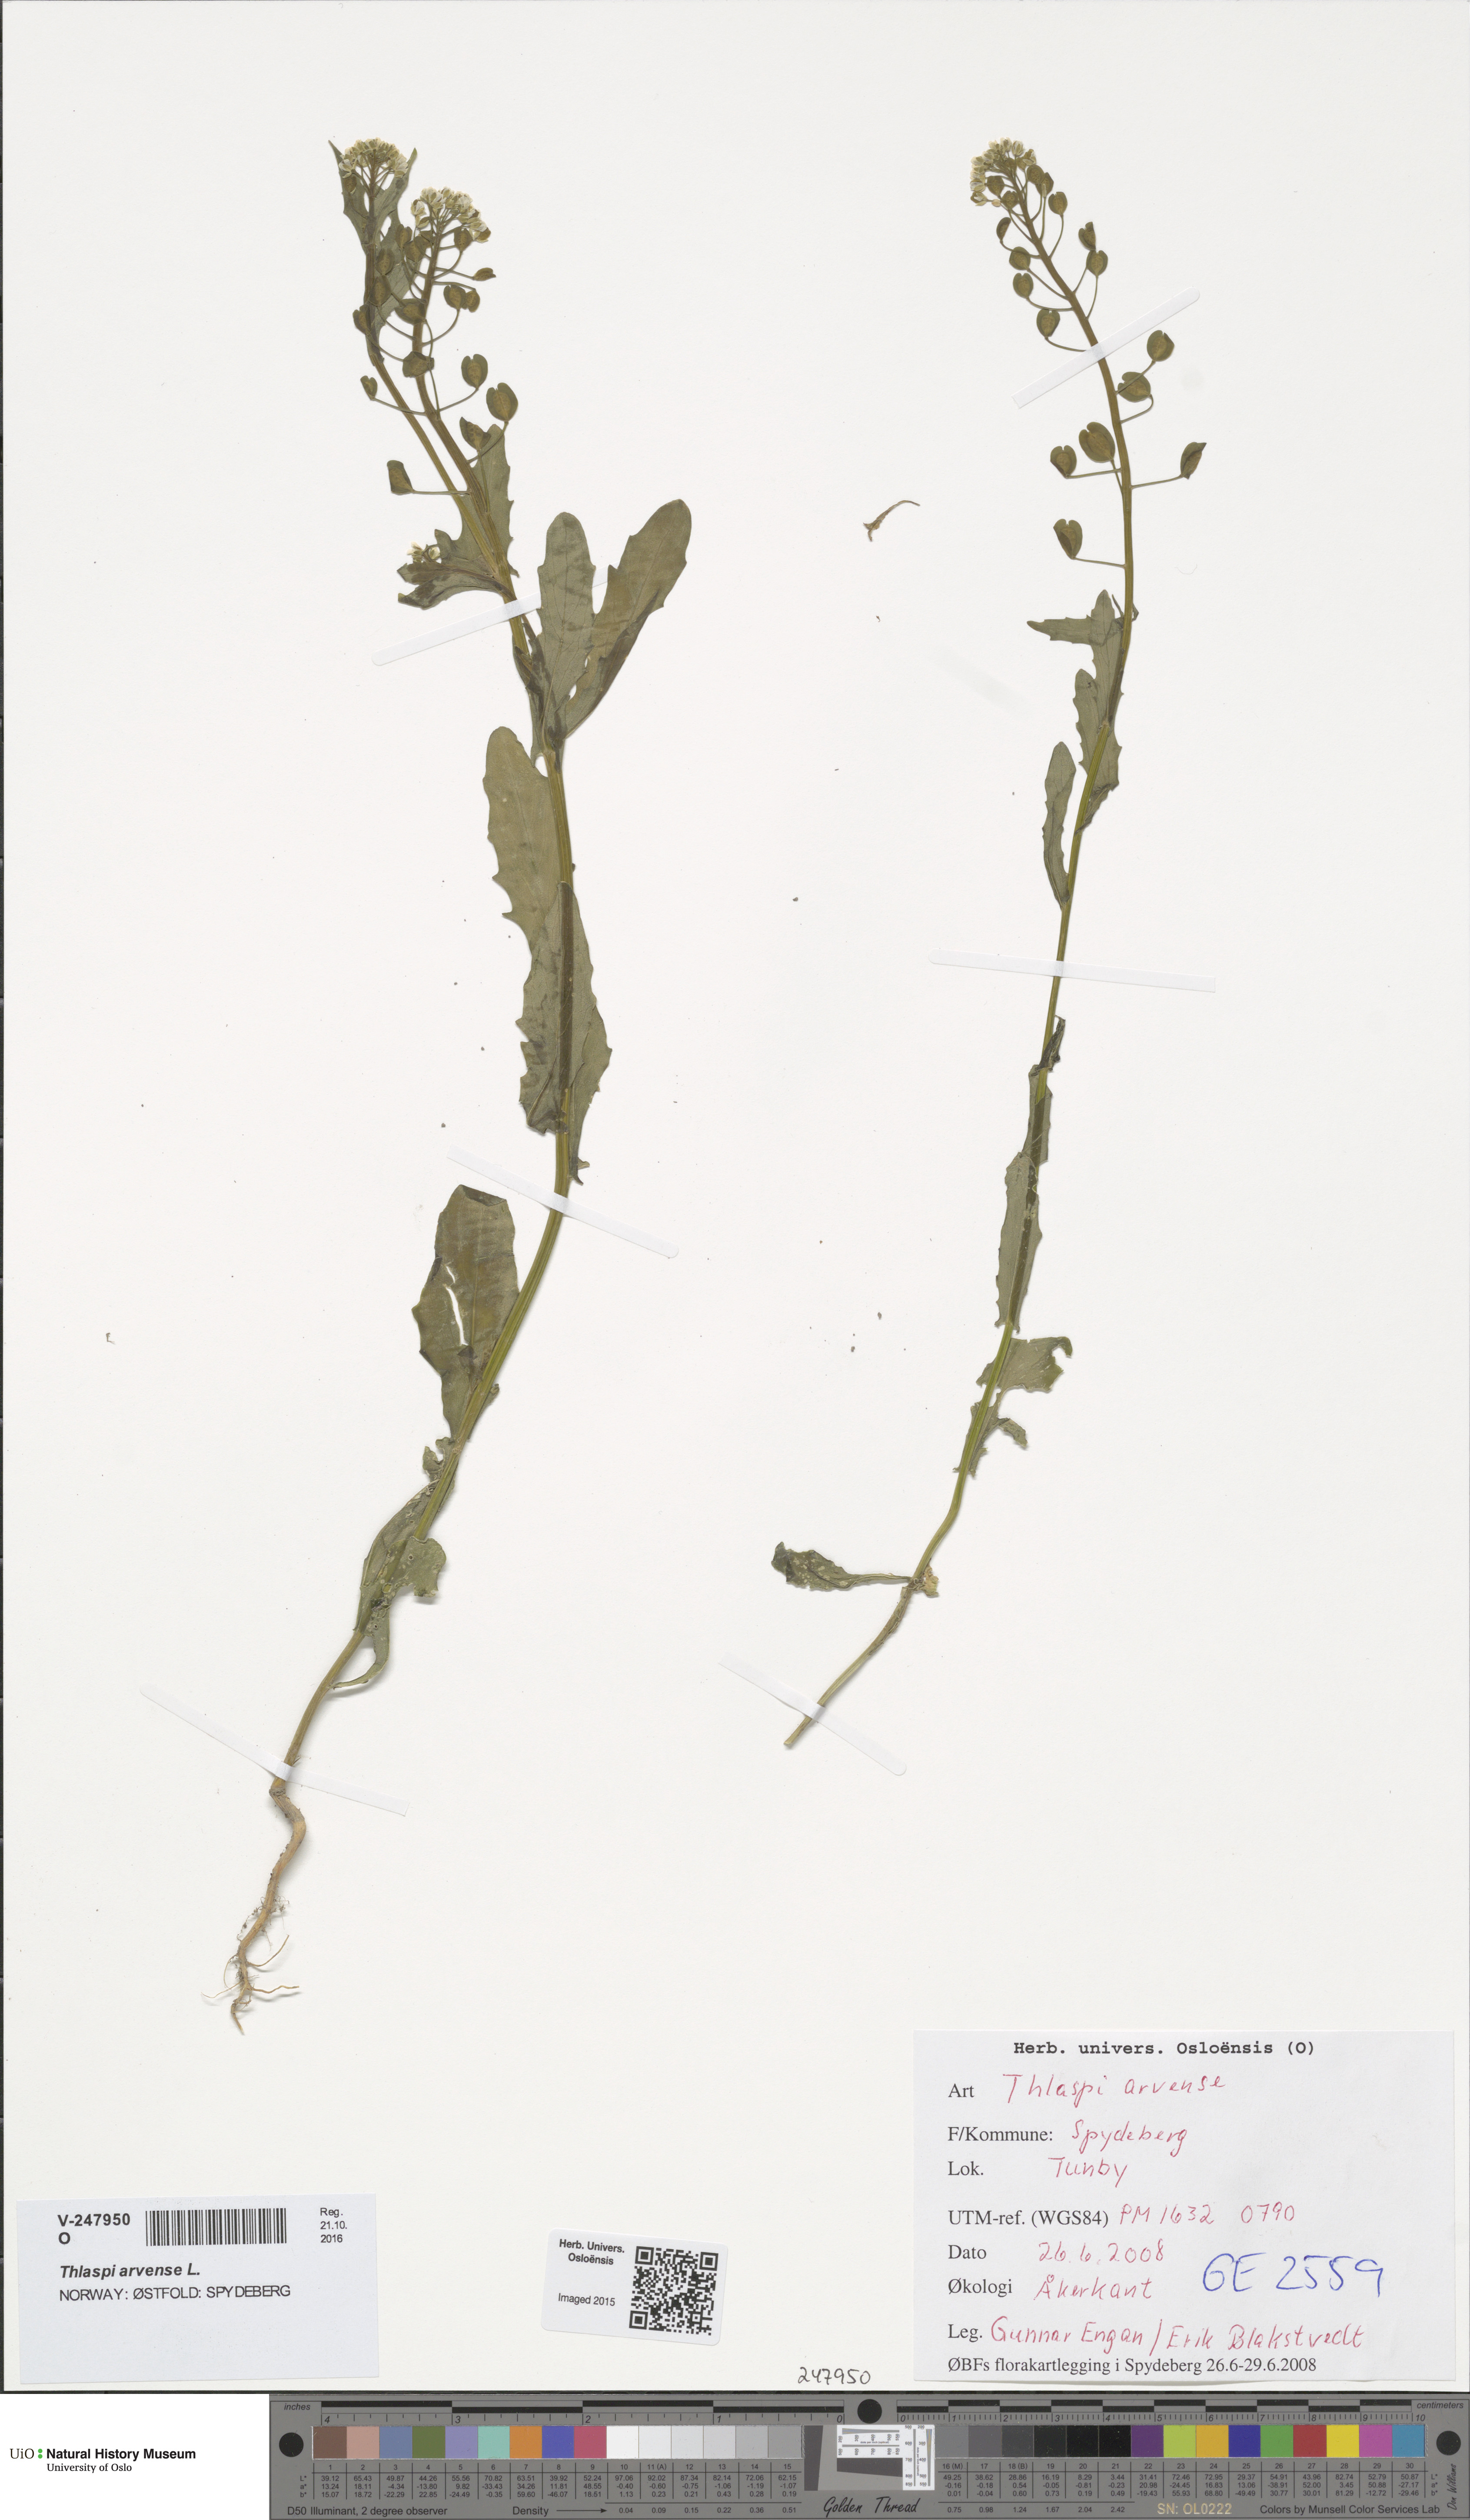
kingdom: Plantae
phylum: Tracheophyta
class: Magnoliopsida
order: Brassicales
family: Brassicaceae
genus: Thlaspi
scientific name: Thlaspi arvense
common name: Field pennycress
